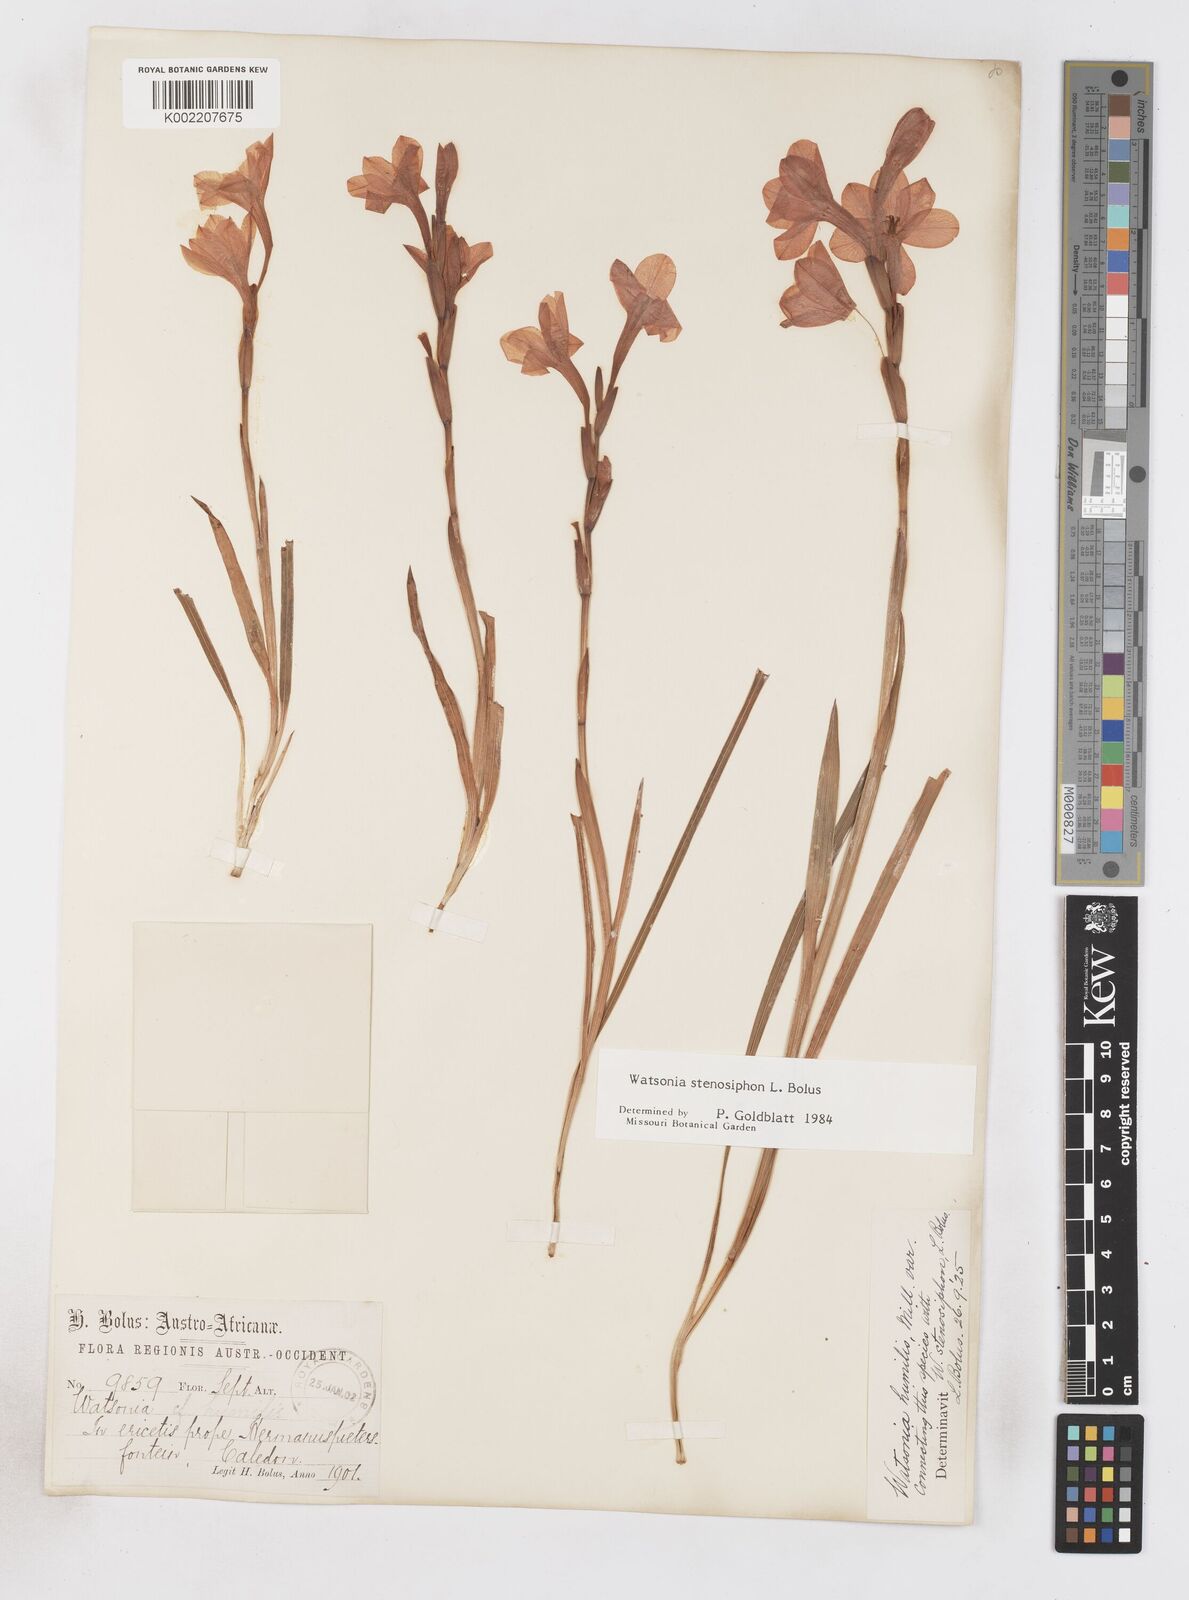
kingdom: Plantae
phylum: Tracheophyta
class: Liliopsida
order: Asparagales
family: Iridaceae
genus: Watsonia
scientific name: Watsonia stenosiphon
